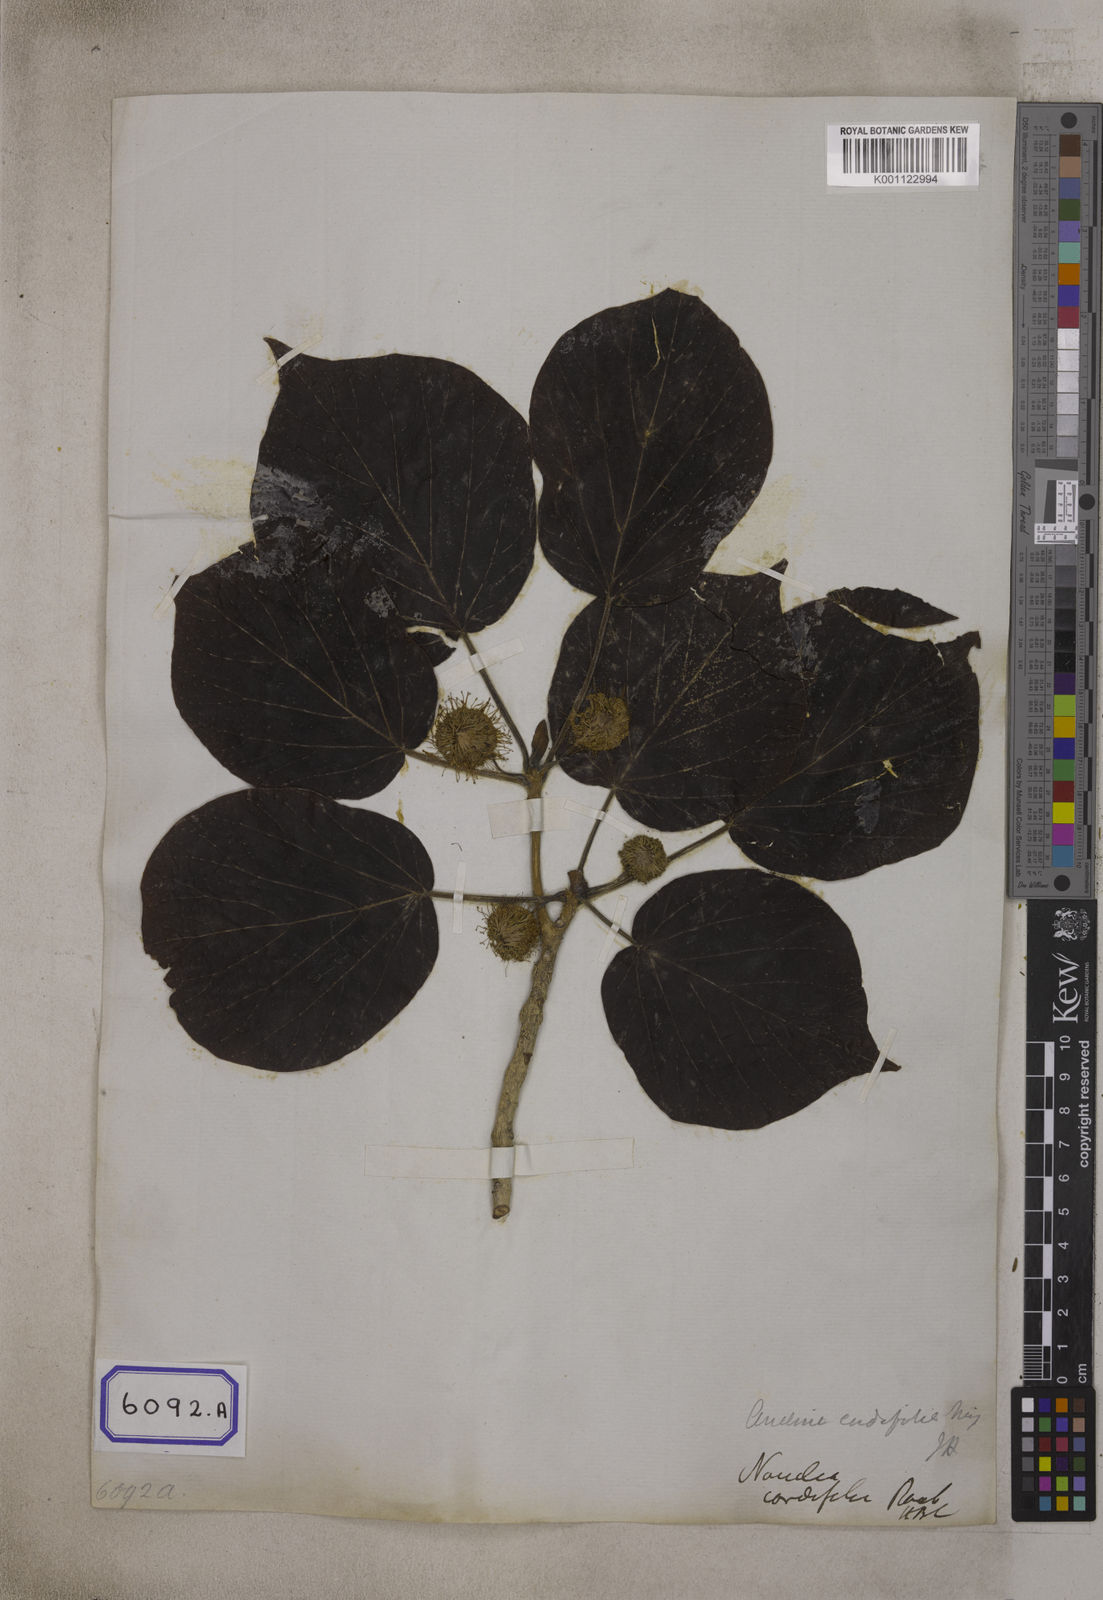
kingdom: Plantae
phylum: Tracheophyta
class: Magnoliopsida
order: Gentianales
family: Rubiaceae
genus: Adina
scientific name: Adina cordifolia
